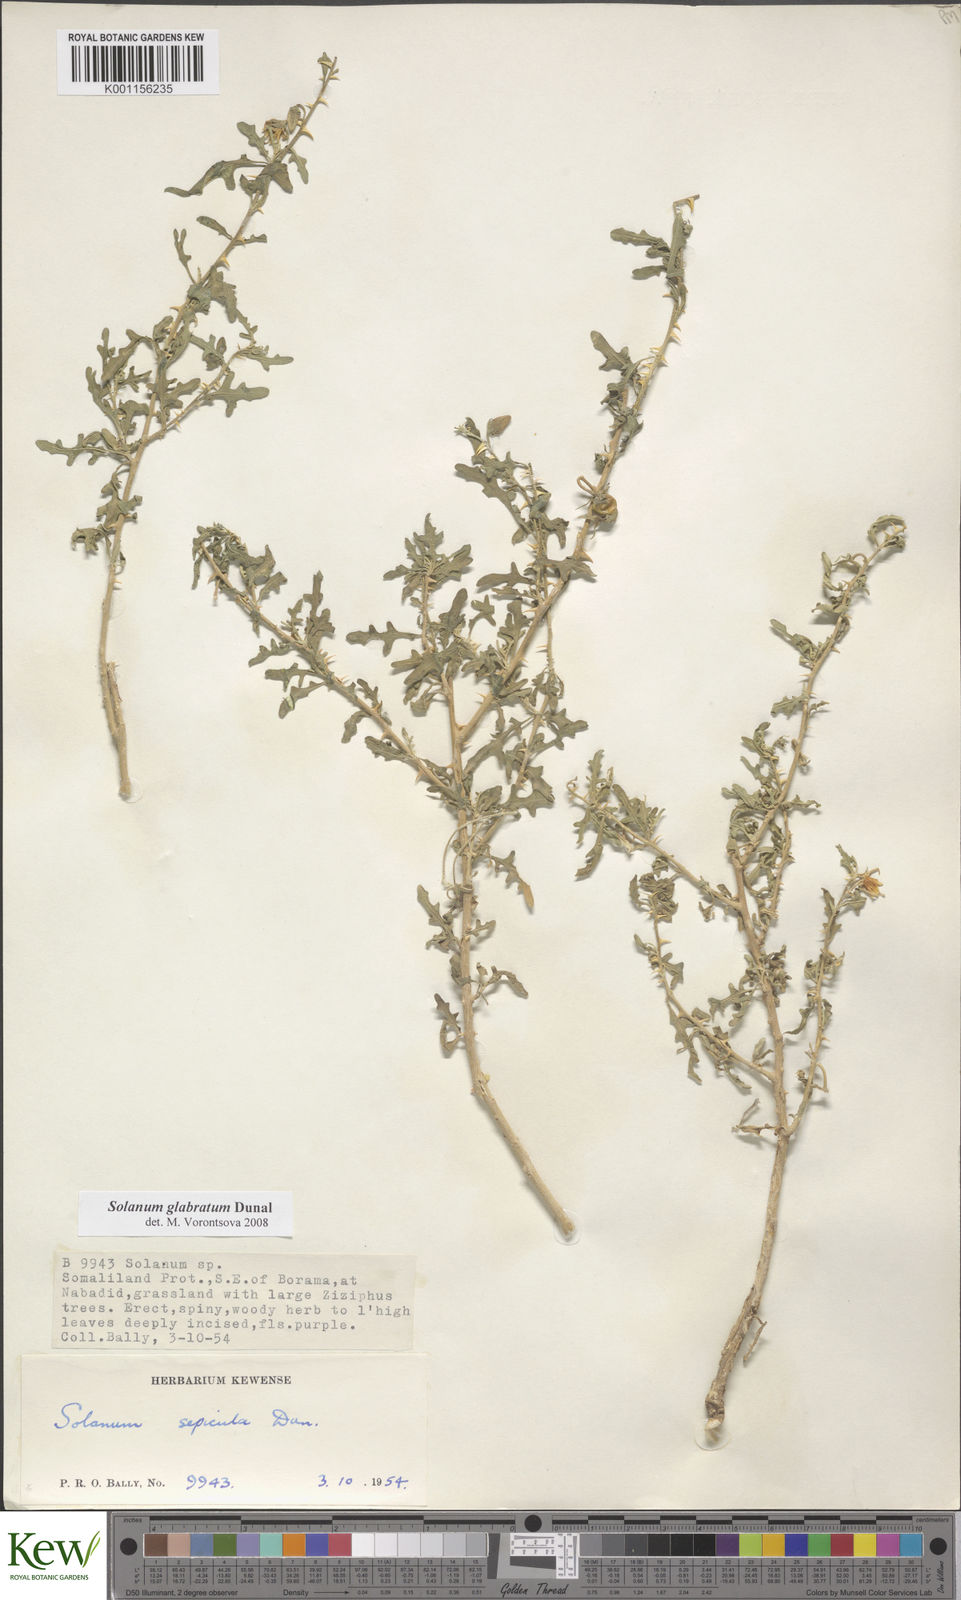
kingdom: Plantae
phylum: Tracheophyta
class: Magnoliopsida
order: Solanales
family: Solanaceae
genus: Solanum
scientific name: Solanum glabratum
